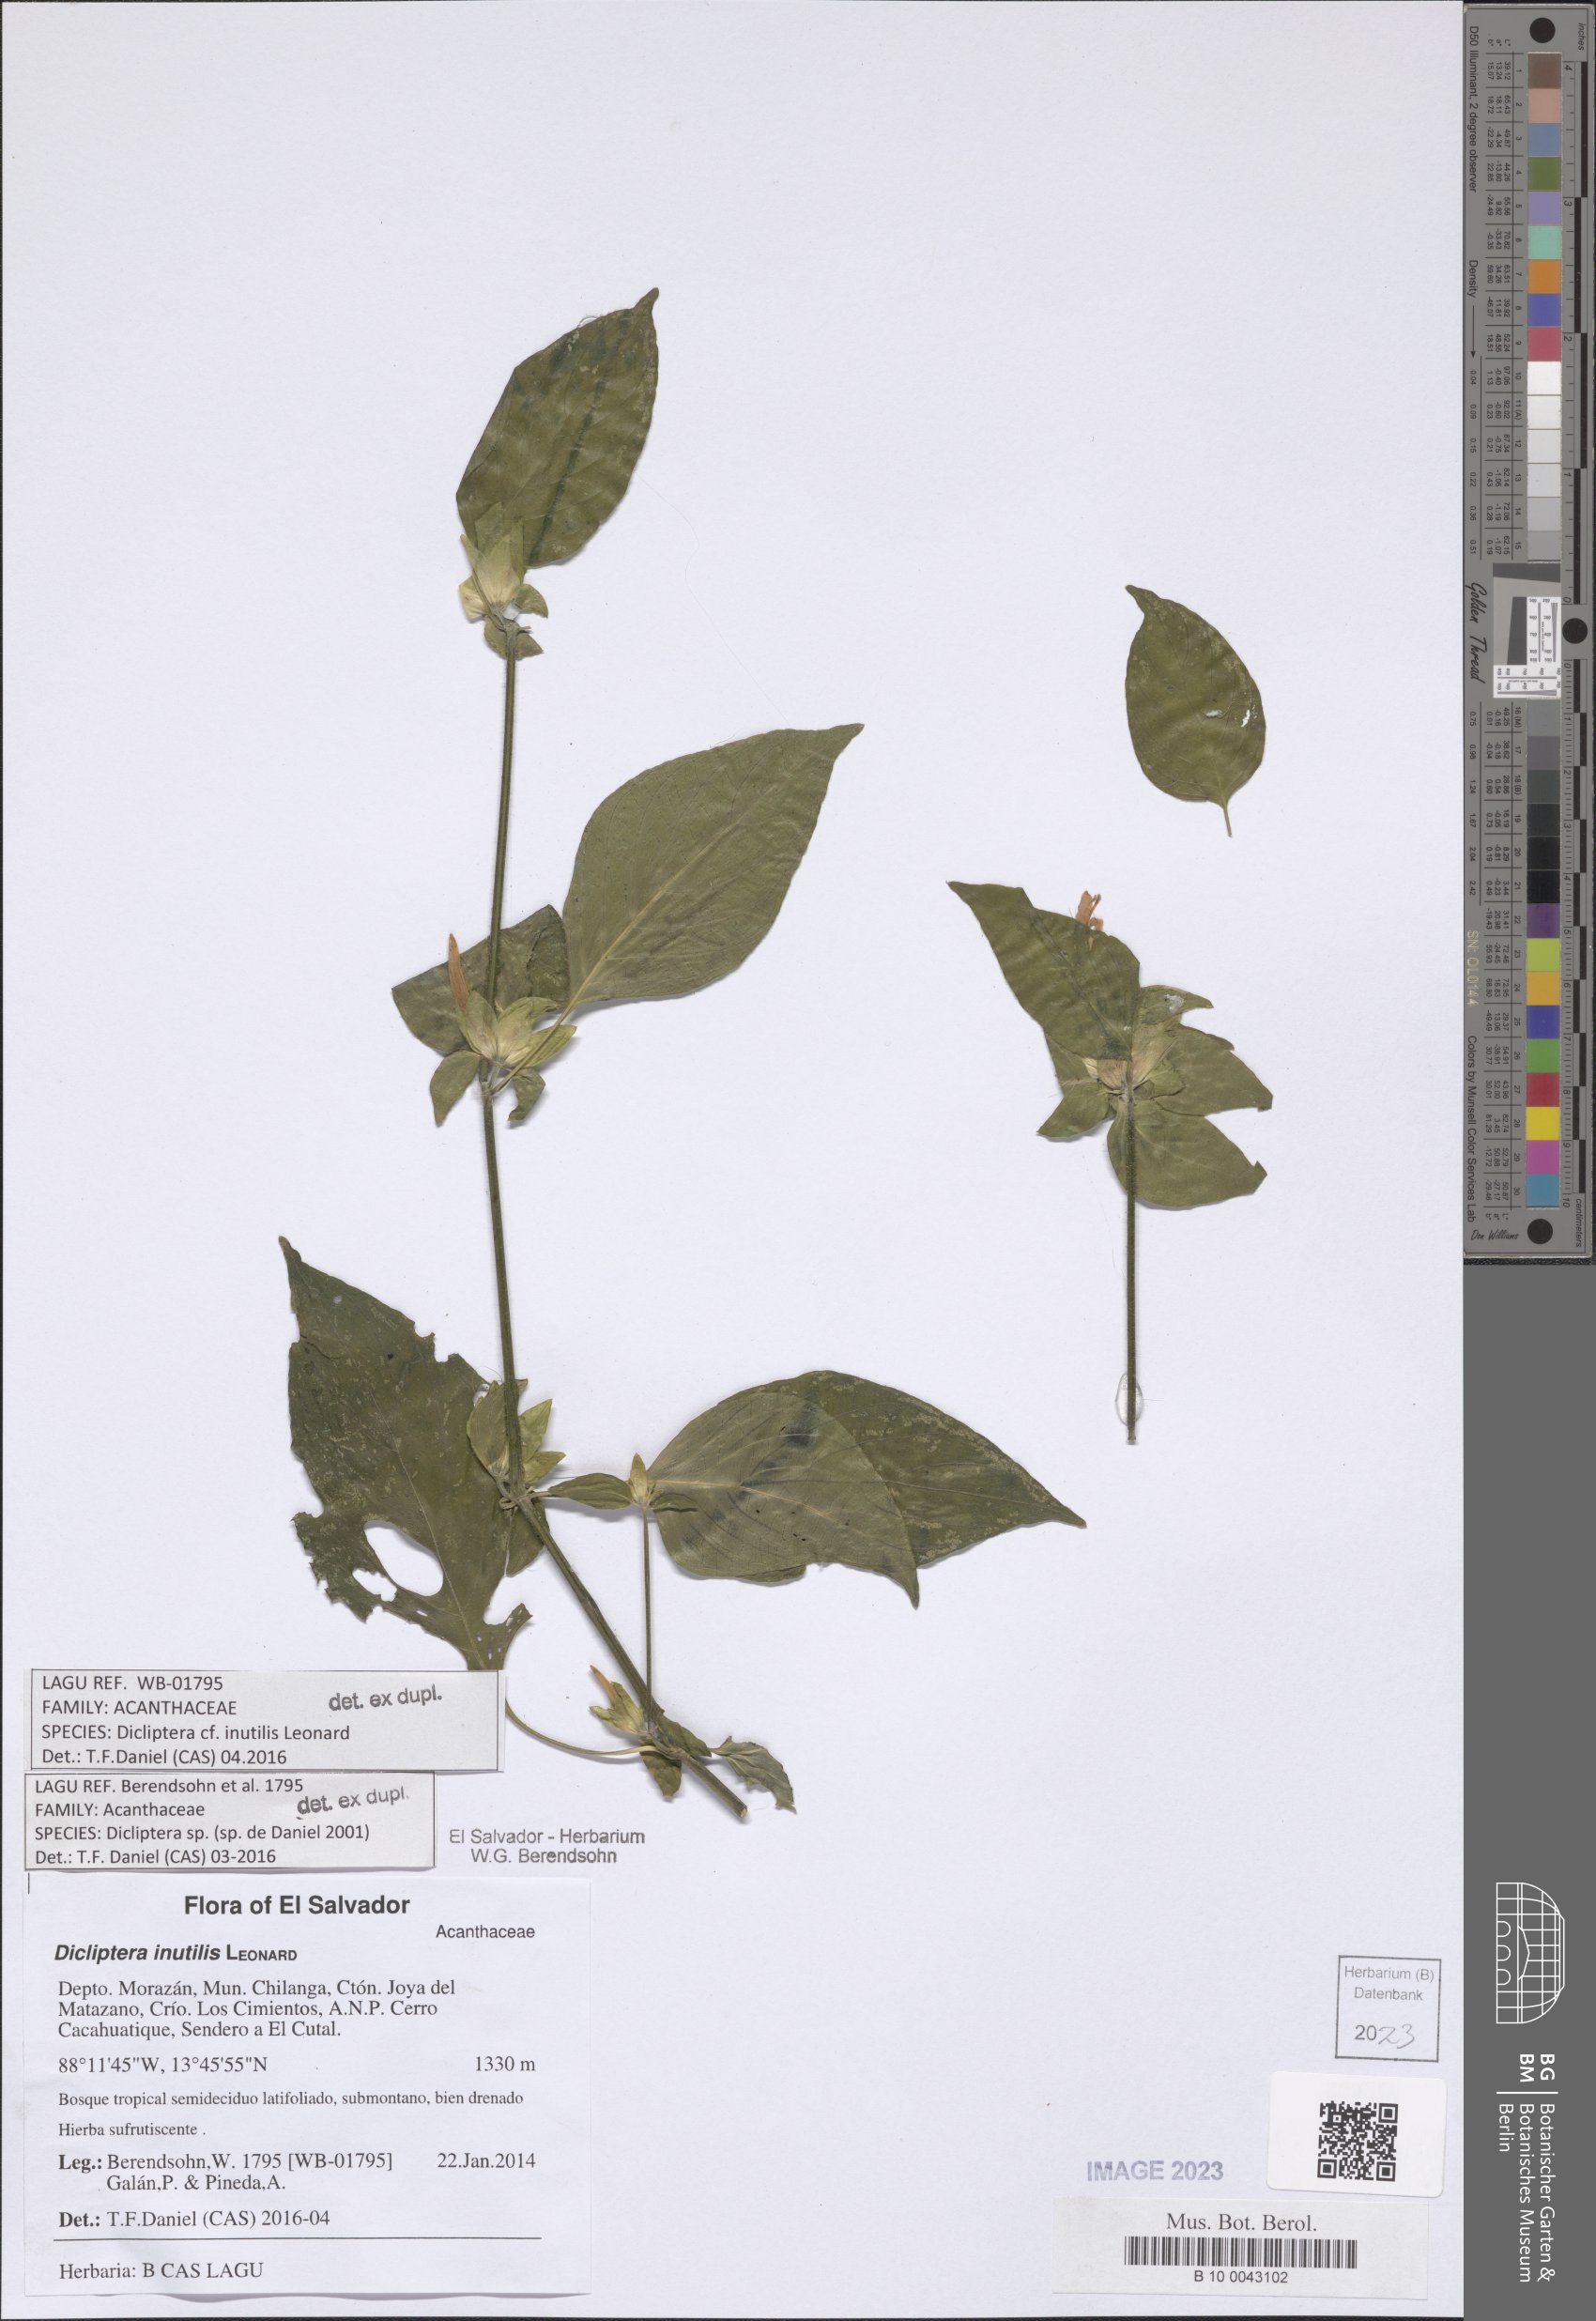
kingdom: Plantae
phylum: Tracheophyta
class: Magnoliopsida
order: Lamiales
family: Acanthaceae
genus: Dicliptera
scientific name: Dicliptera inutilis
